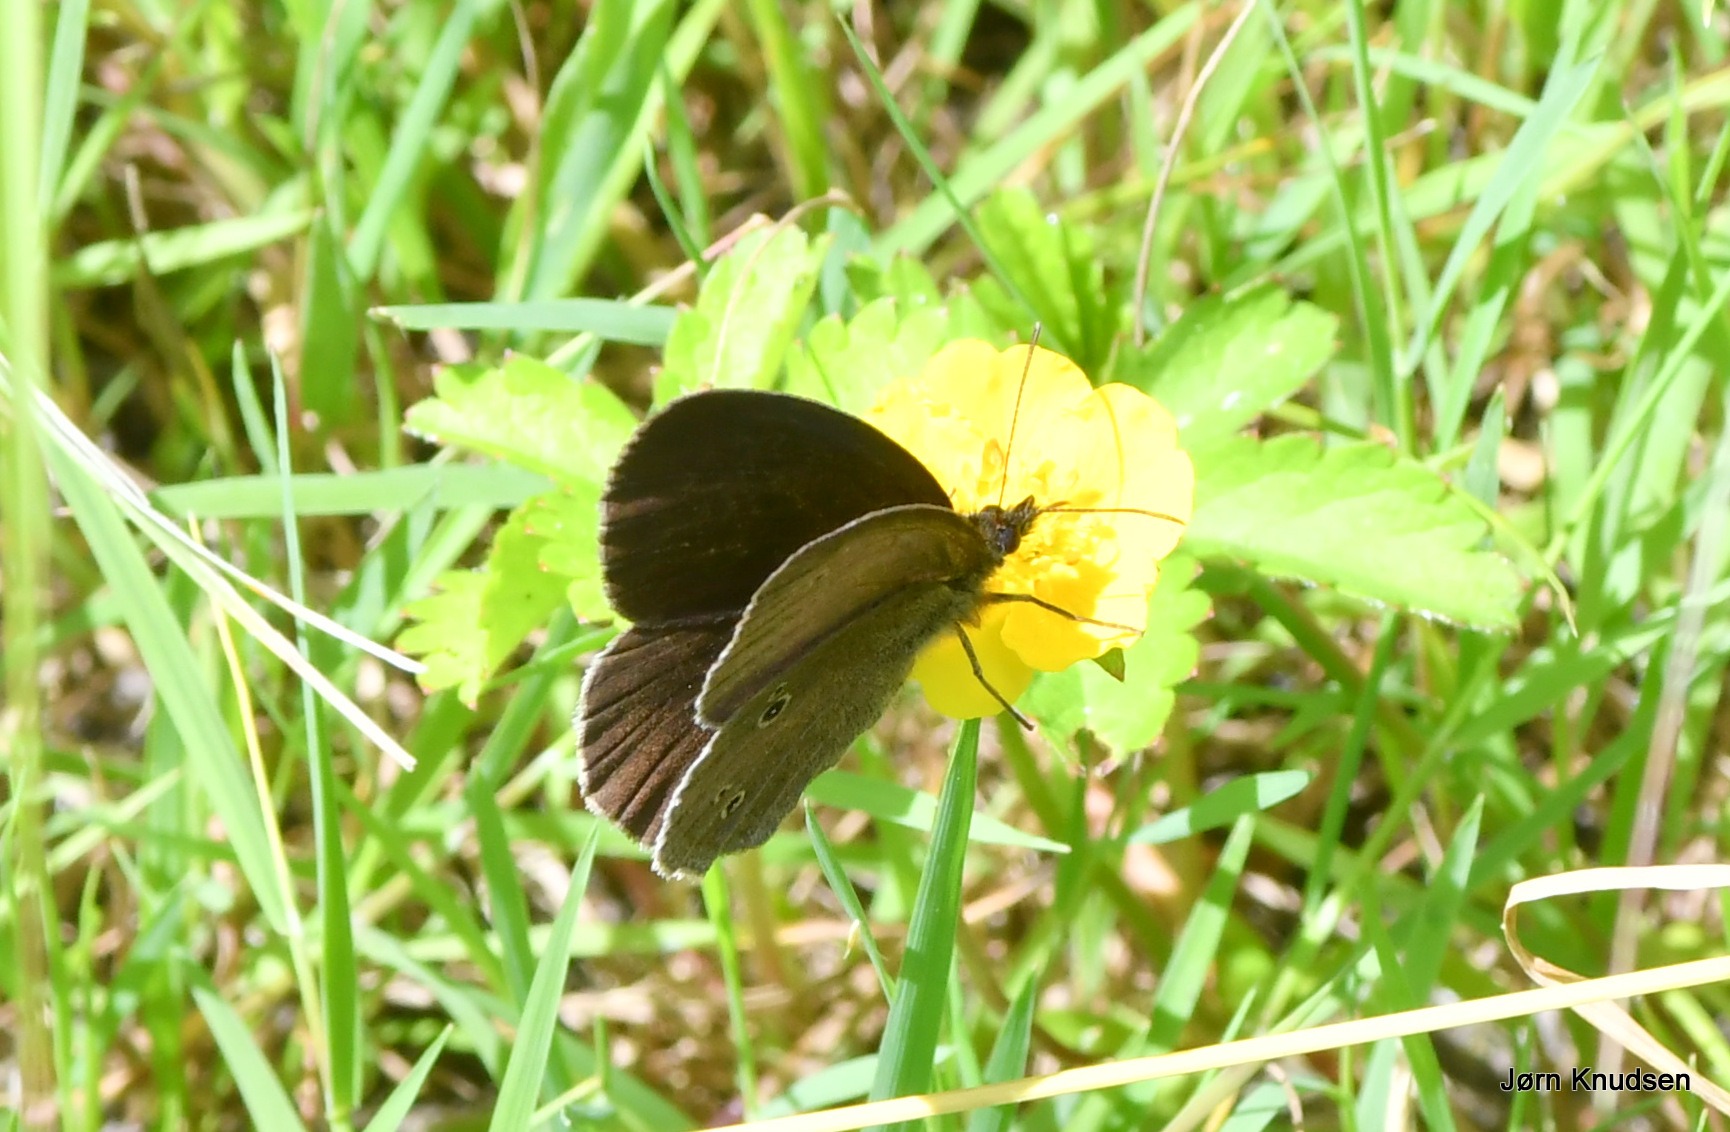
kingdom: Animalia
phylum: Arthropoda
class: Insecta
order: Lepidoptera
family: Nymphalidae
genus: Aphantopus
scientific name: Aphantopus hyperantus
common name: Engrandøje
